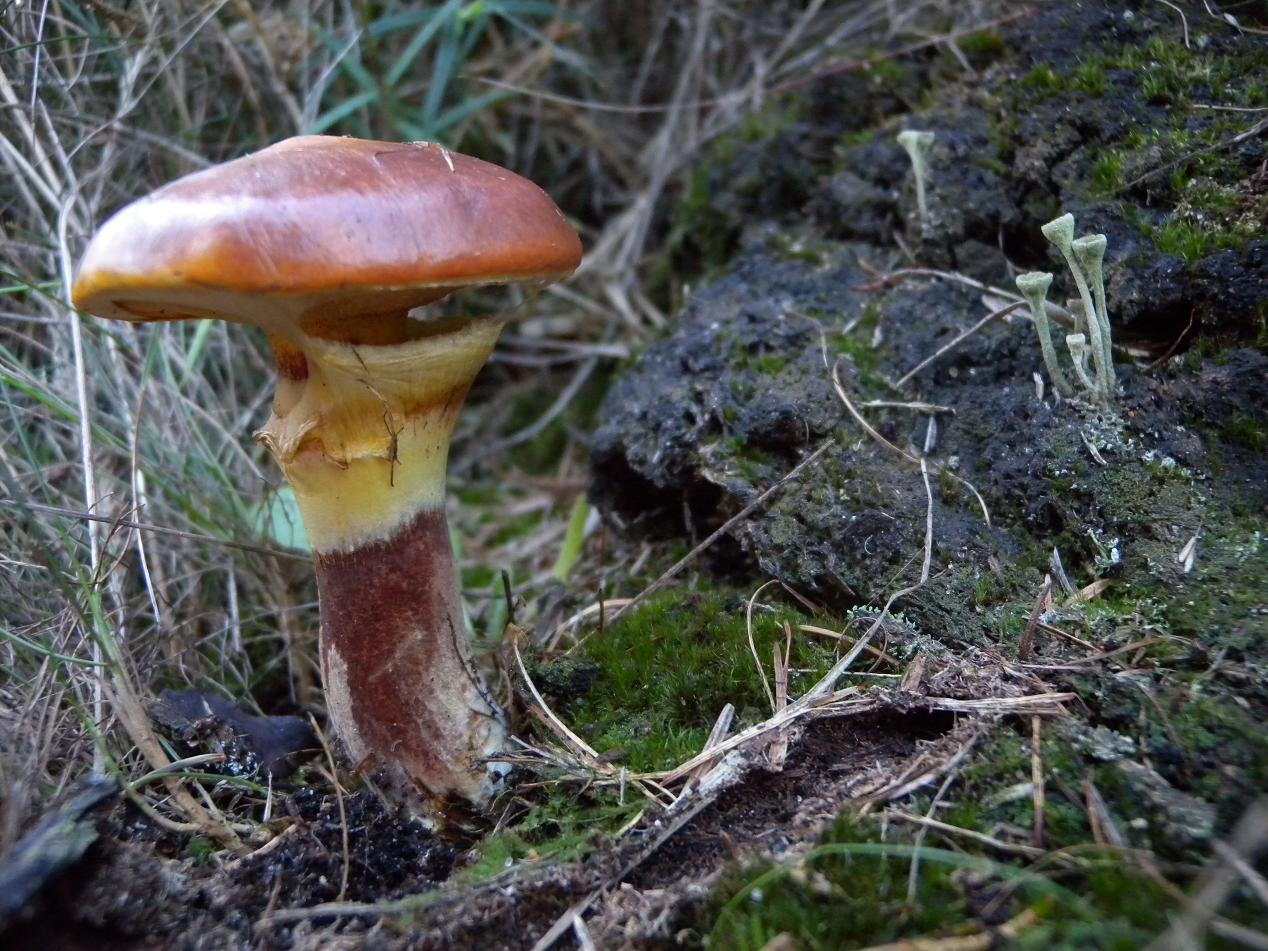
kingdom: Fungi
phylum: Basidiomycota
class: Agaricomycetes
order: Boletales
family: Suillaceae
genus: Suillus
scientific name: Suillus grevillei
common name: lærke-slimrørhat
